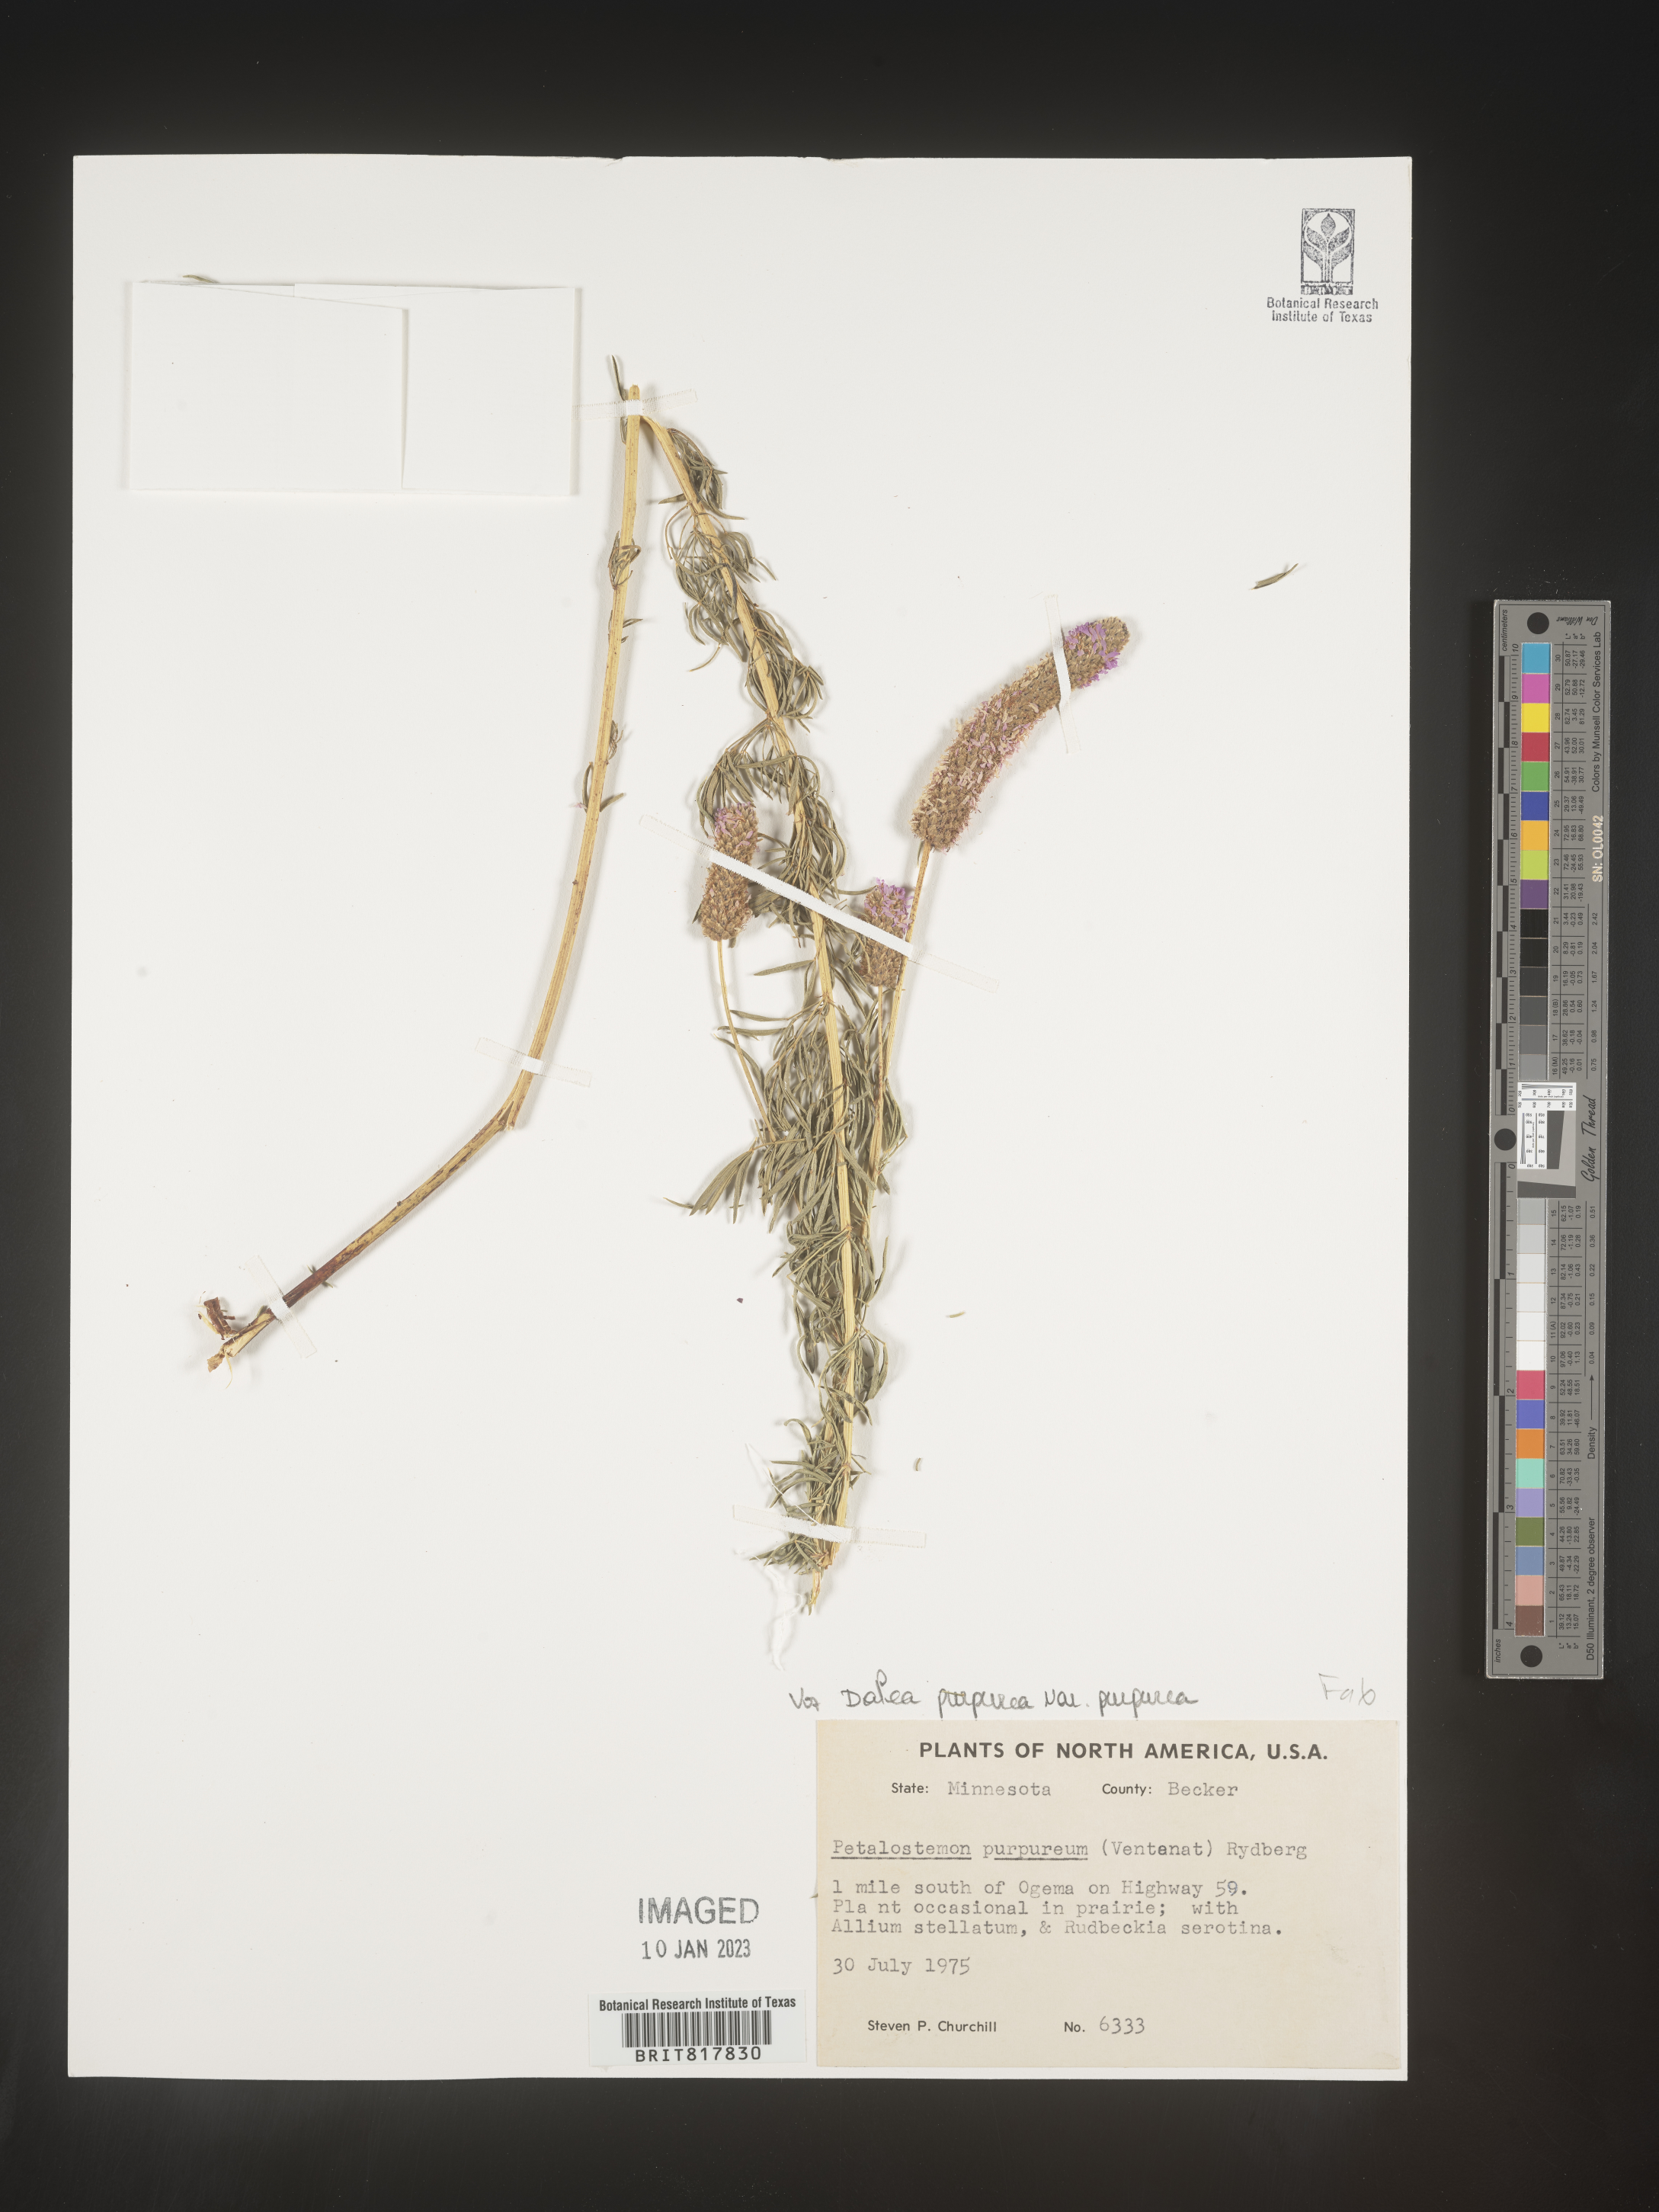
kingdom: Plantae
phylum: Tracheophyta
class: Magnoliopsida
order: Fabales
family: Fabaceae
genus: Dalea
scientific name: Dalea purpurea
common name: Purple prairie-clover
